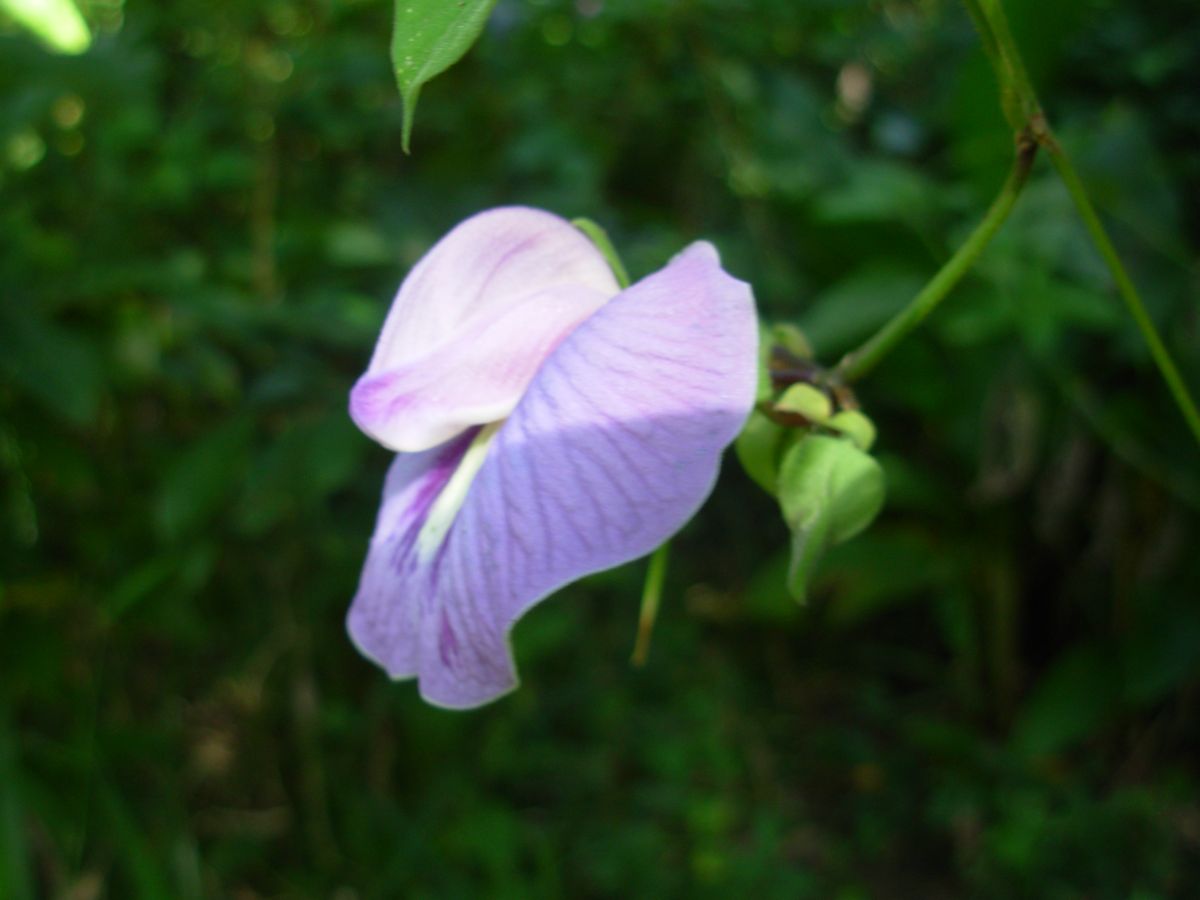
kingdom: Plantae
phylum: Tracheophyta
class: Magnoliopsida
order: Fabales
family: Fabaceae
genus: Centrosema
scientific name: Centrosema molle
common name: Soft butterfly pea
